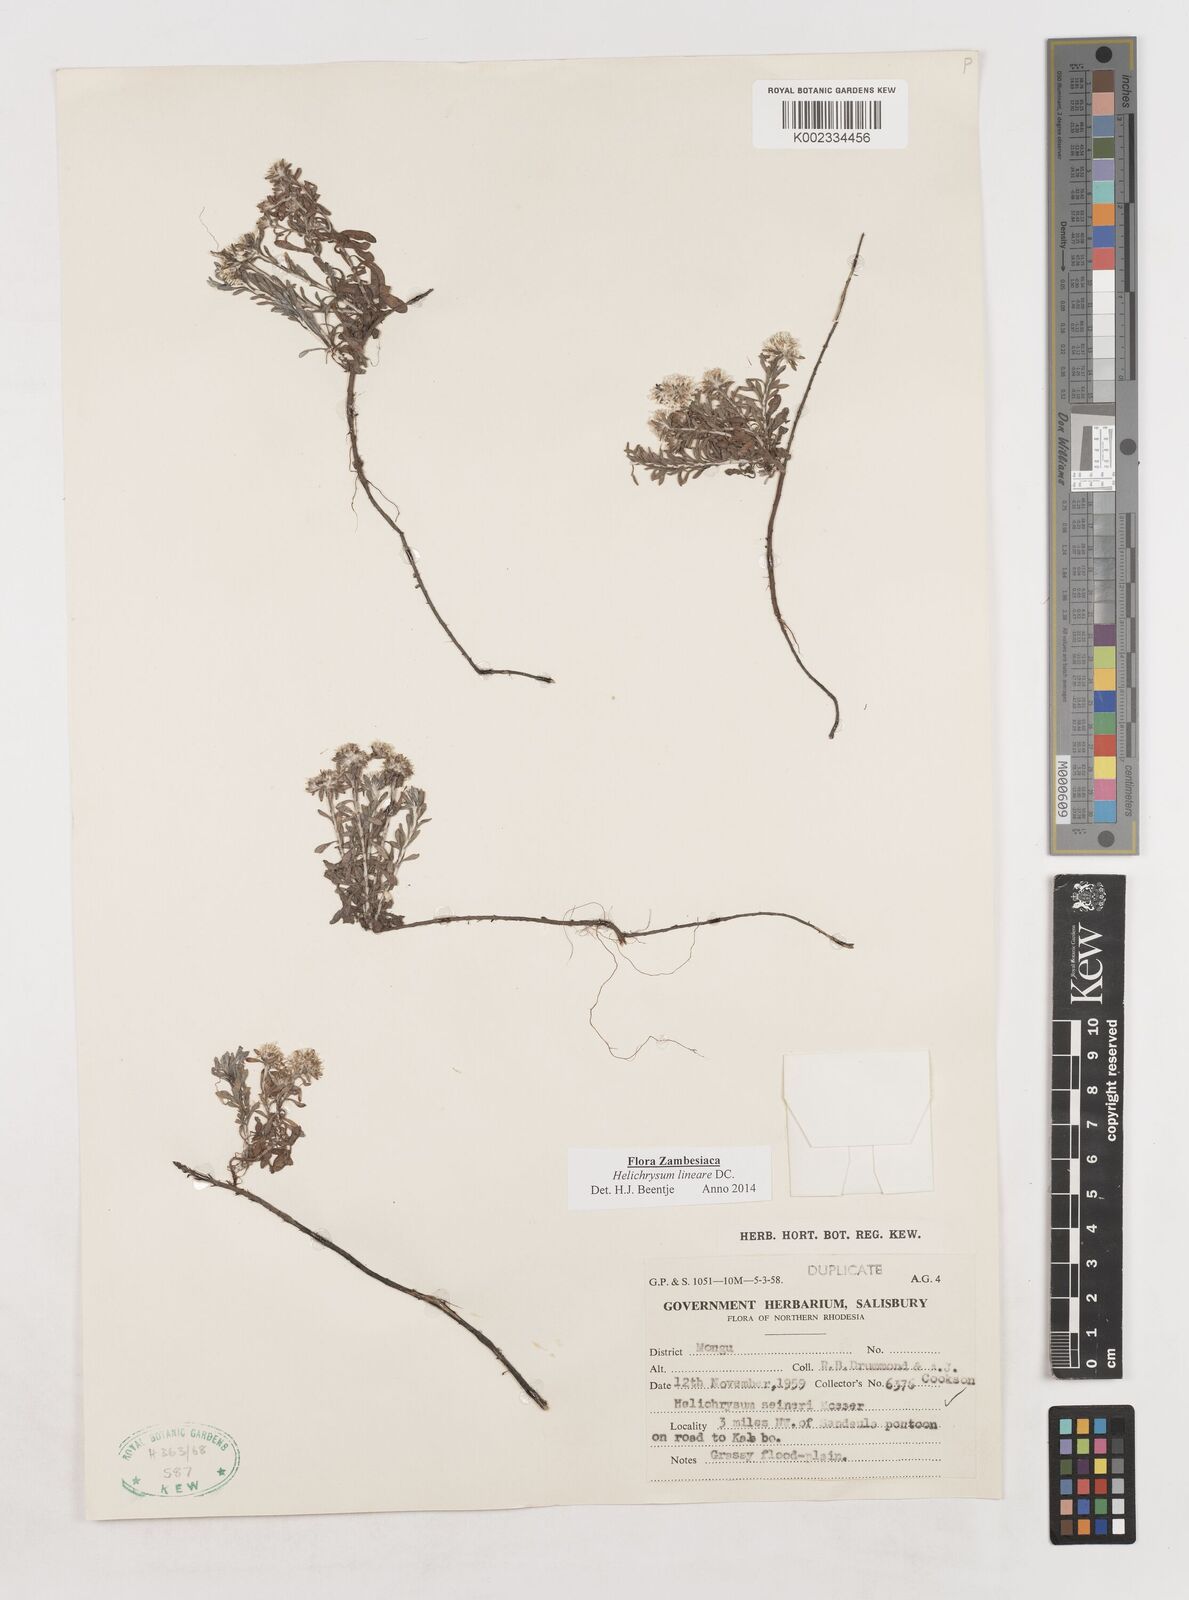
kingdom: Plantae
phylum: Tracheophyta
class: Magnoliopsida
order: Asterales
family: Asteraceae
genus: Helichrysum
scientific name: Helichrysum lineare
